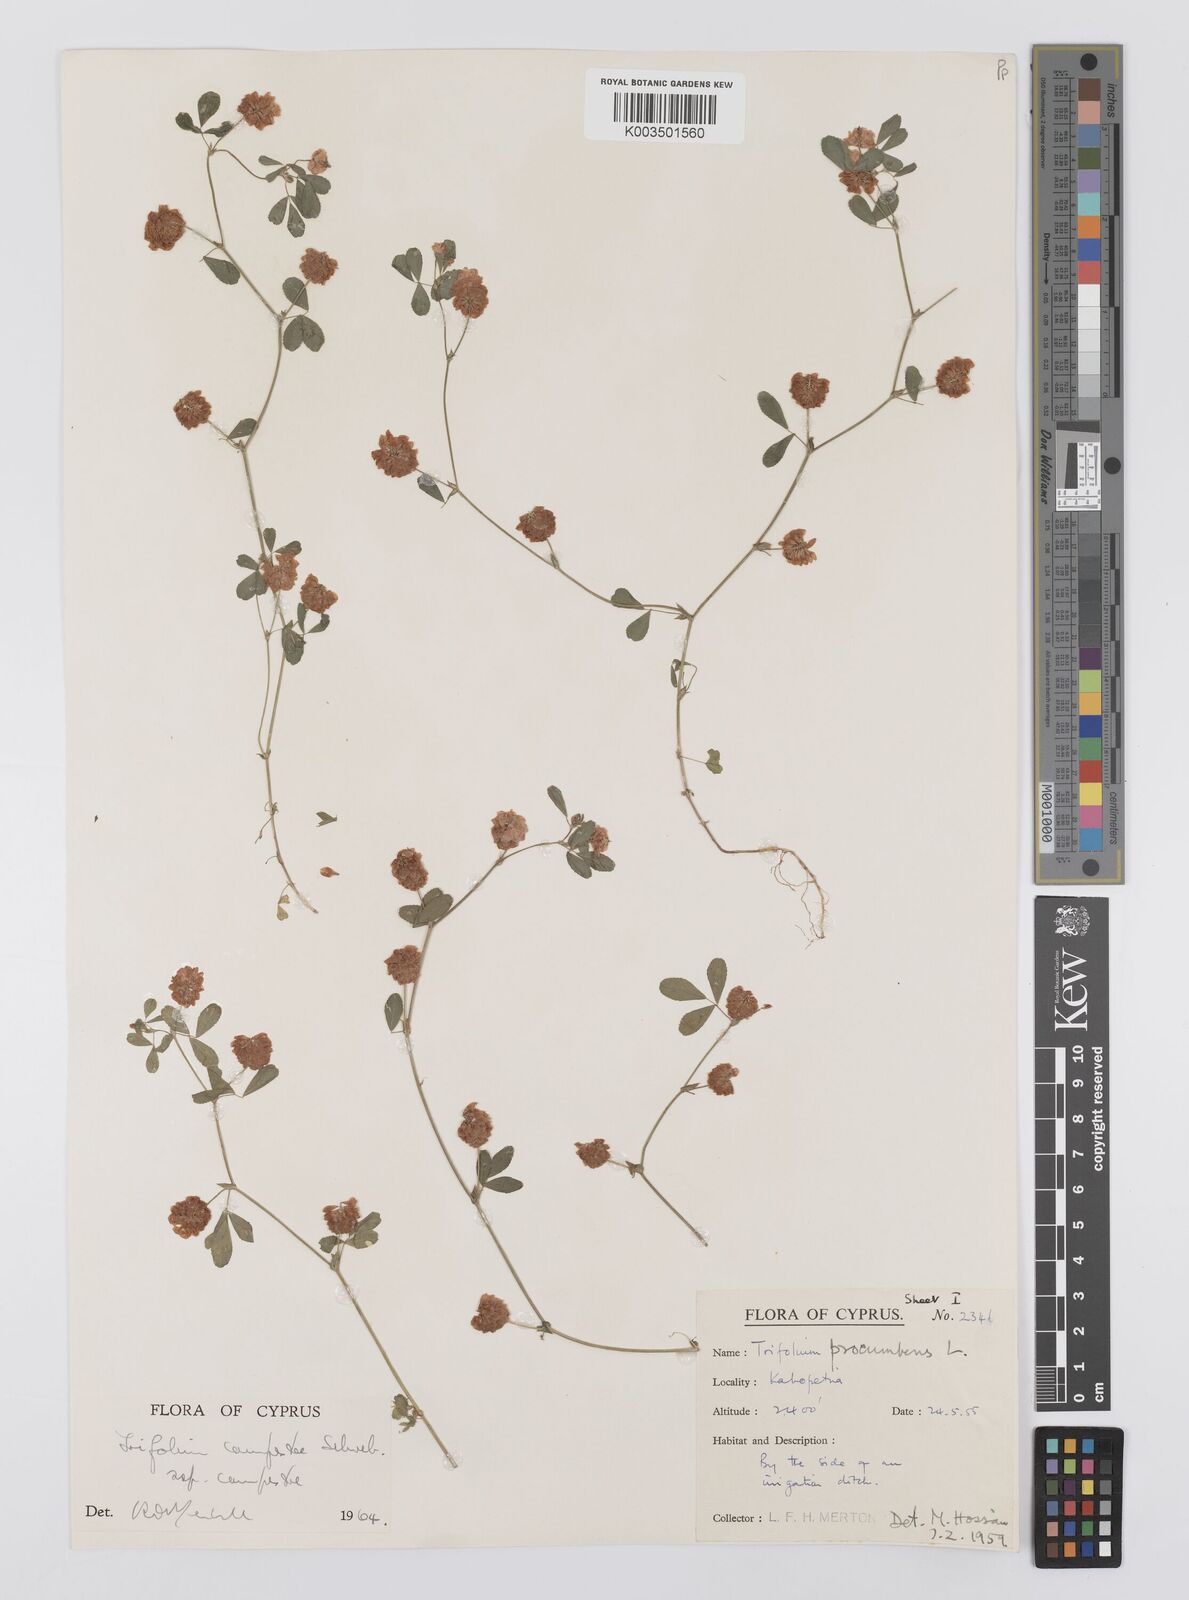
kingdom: Plantae
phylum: Tracheophyta
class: Magnoliopsida
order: Fabales
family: Fabaceae
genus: Trifolium
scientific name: Trifolium campestre
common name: Field clover
